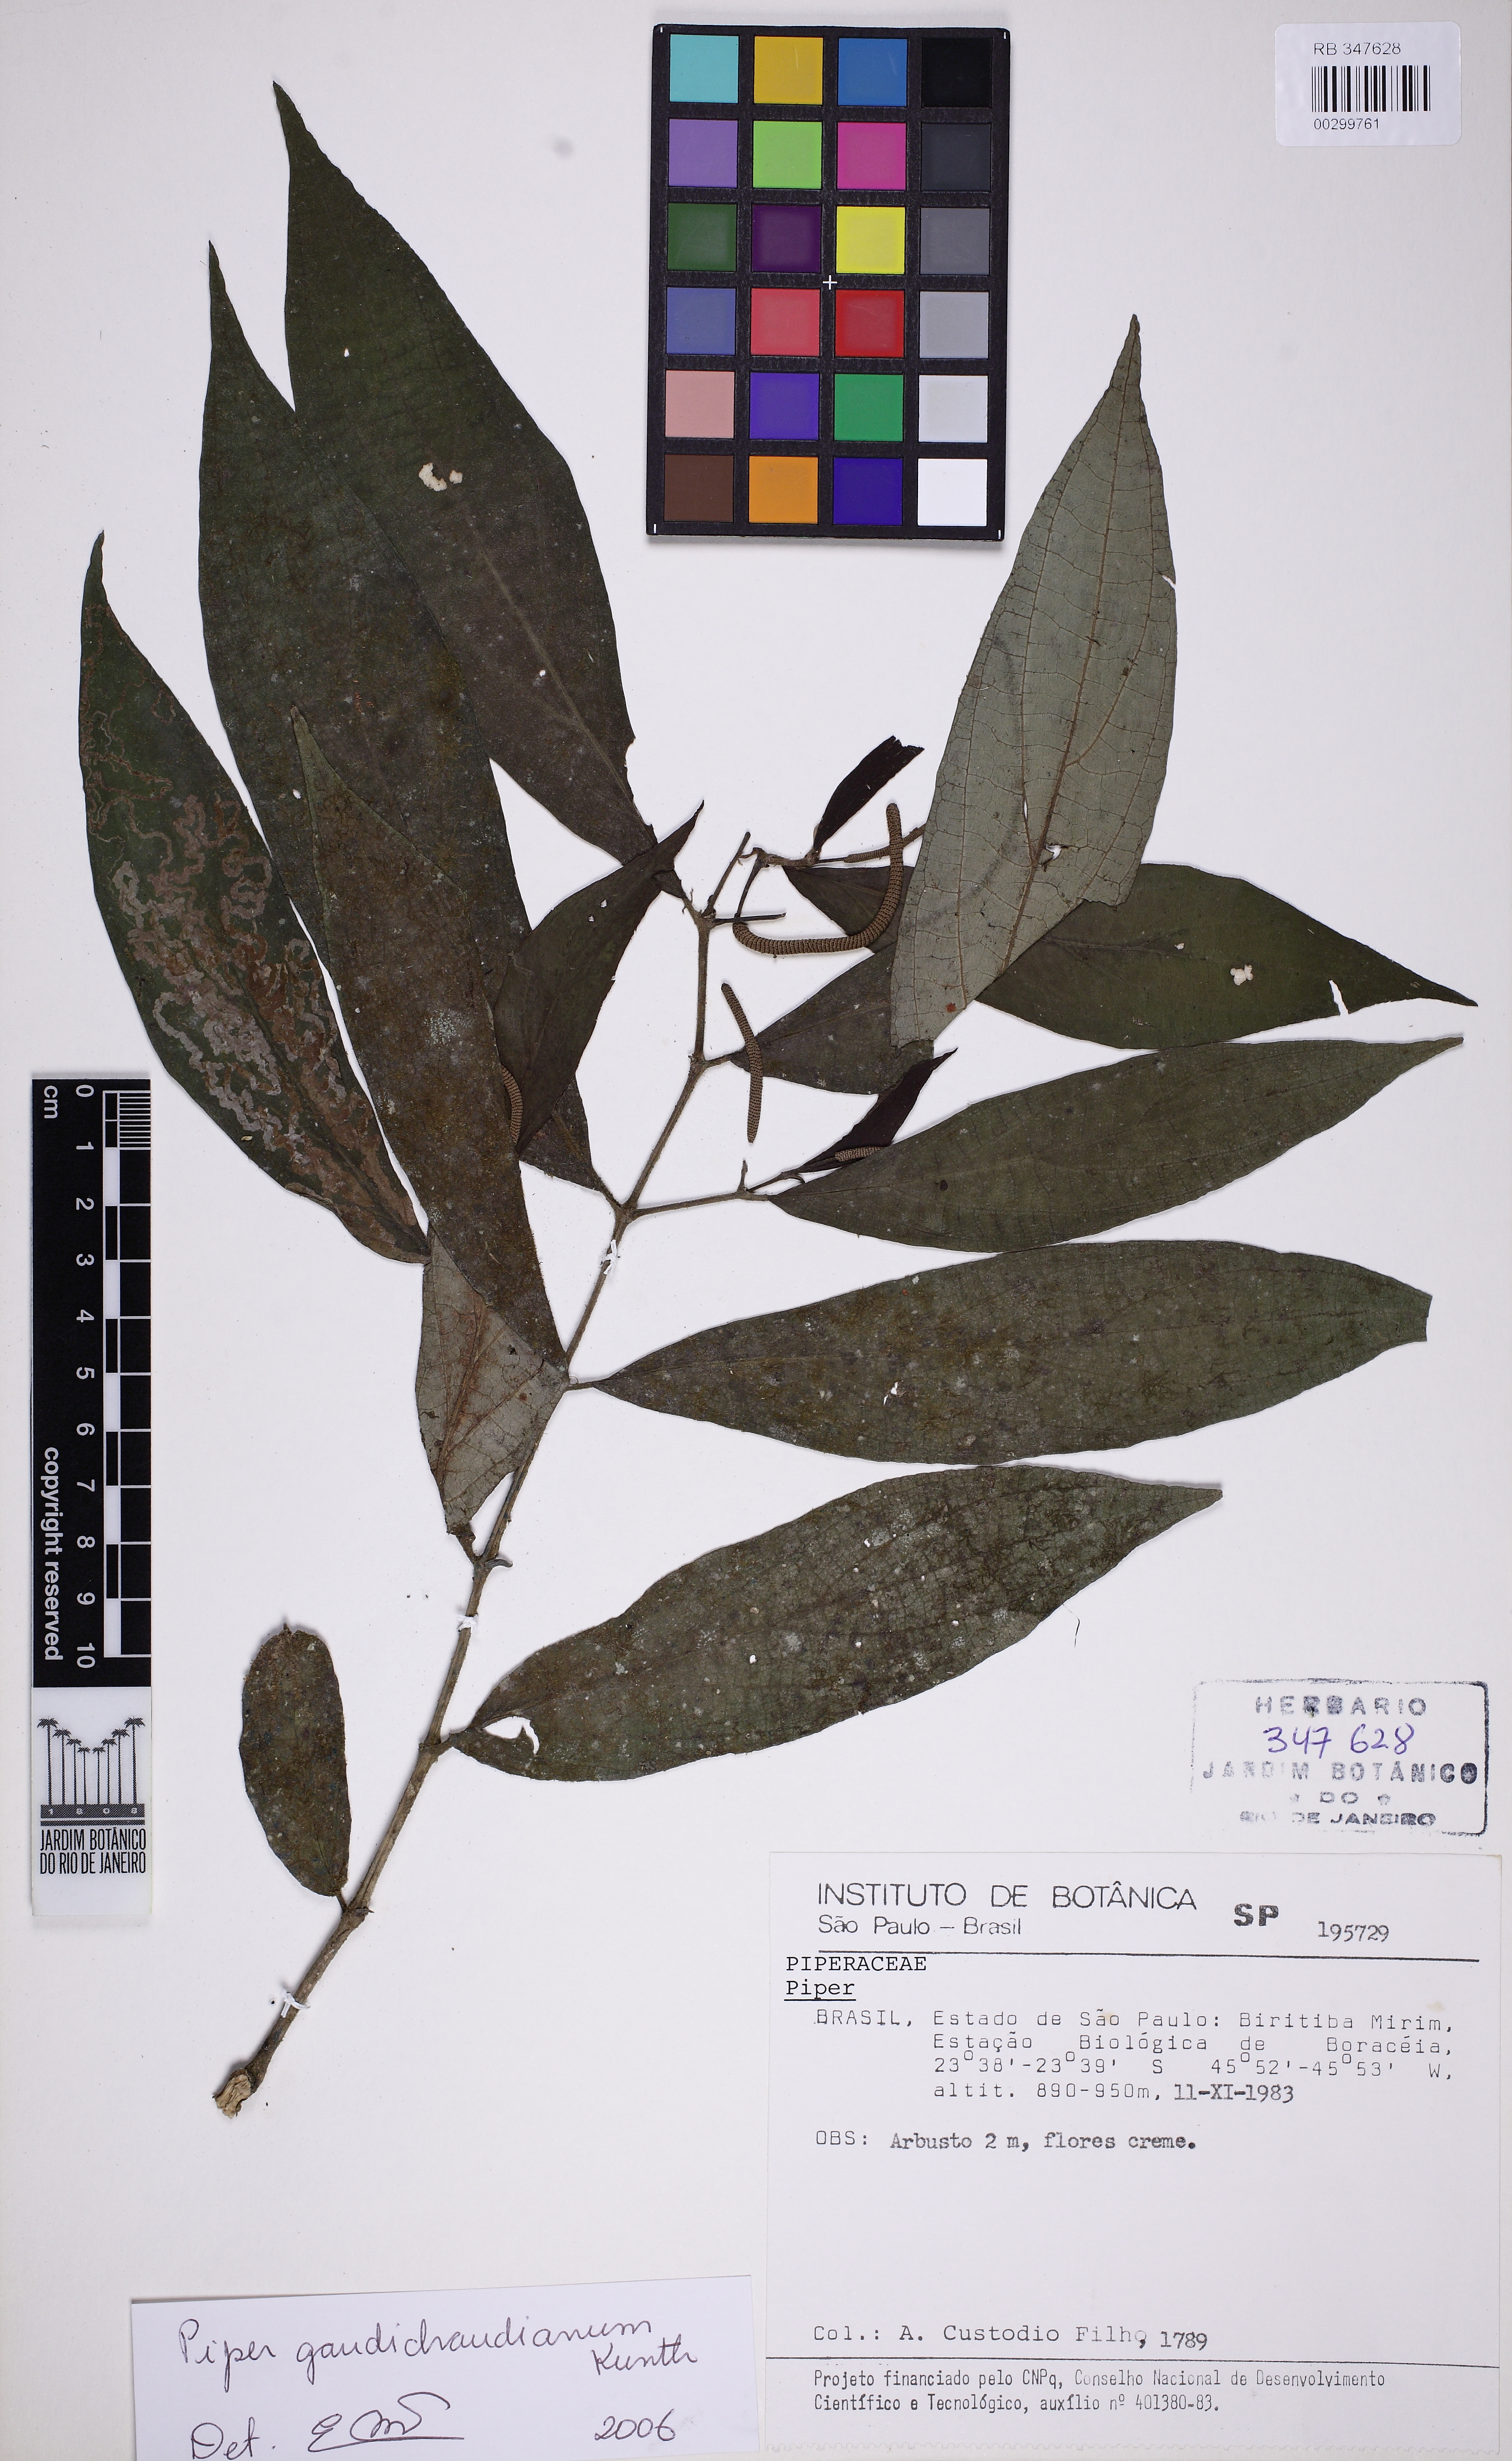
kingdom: Plantae
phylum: Tracheophyta
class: Magnoliopsida
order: Piperales
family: Piperaceae
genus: Piper
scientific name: Piper gaudichaudianum
